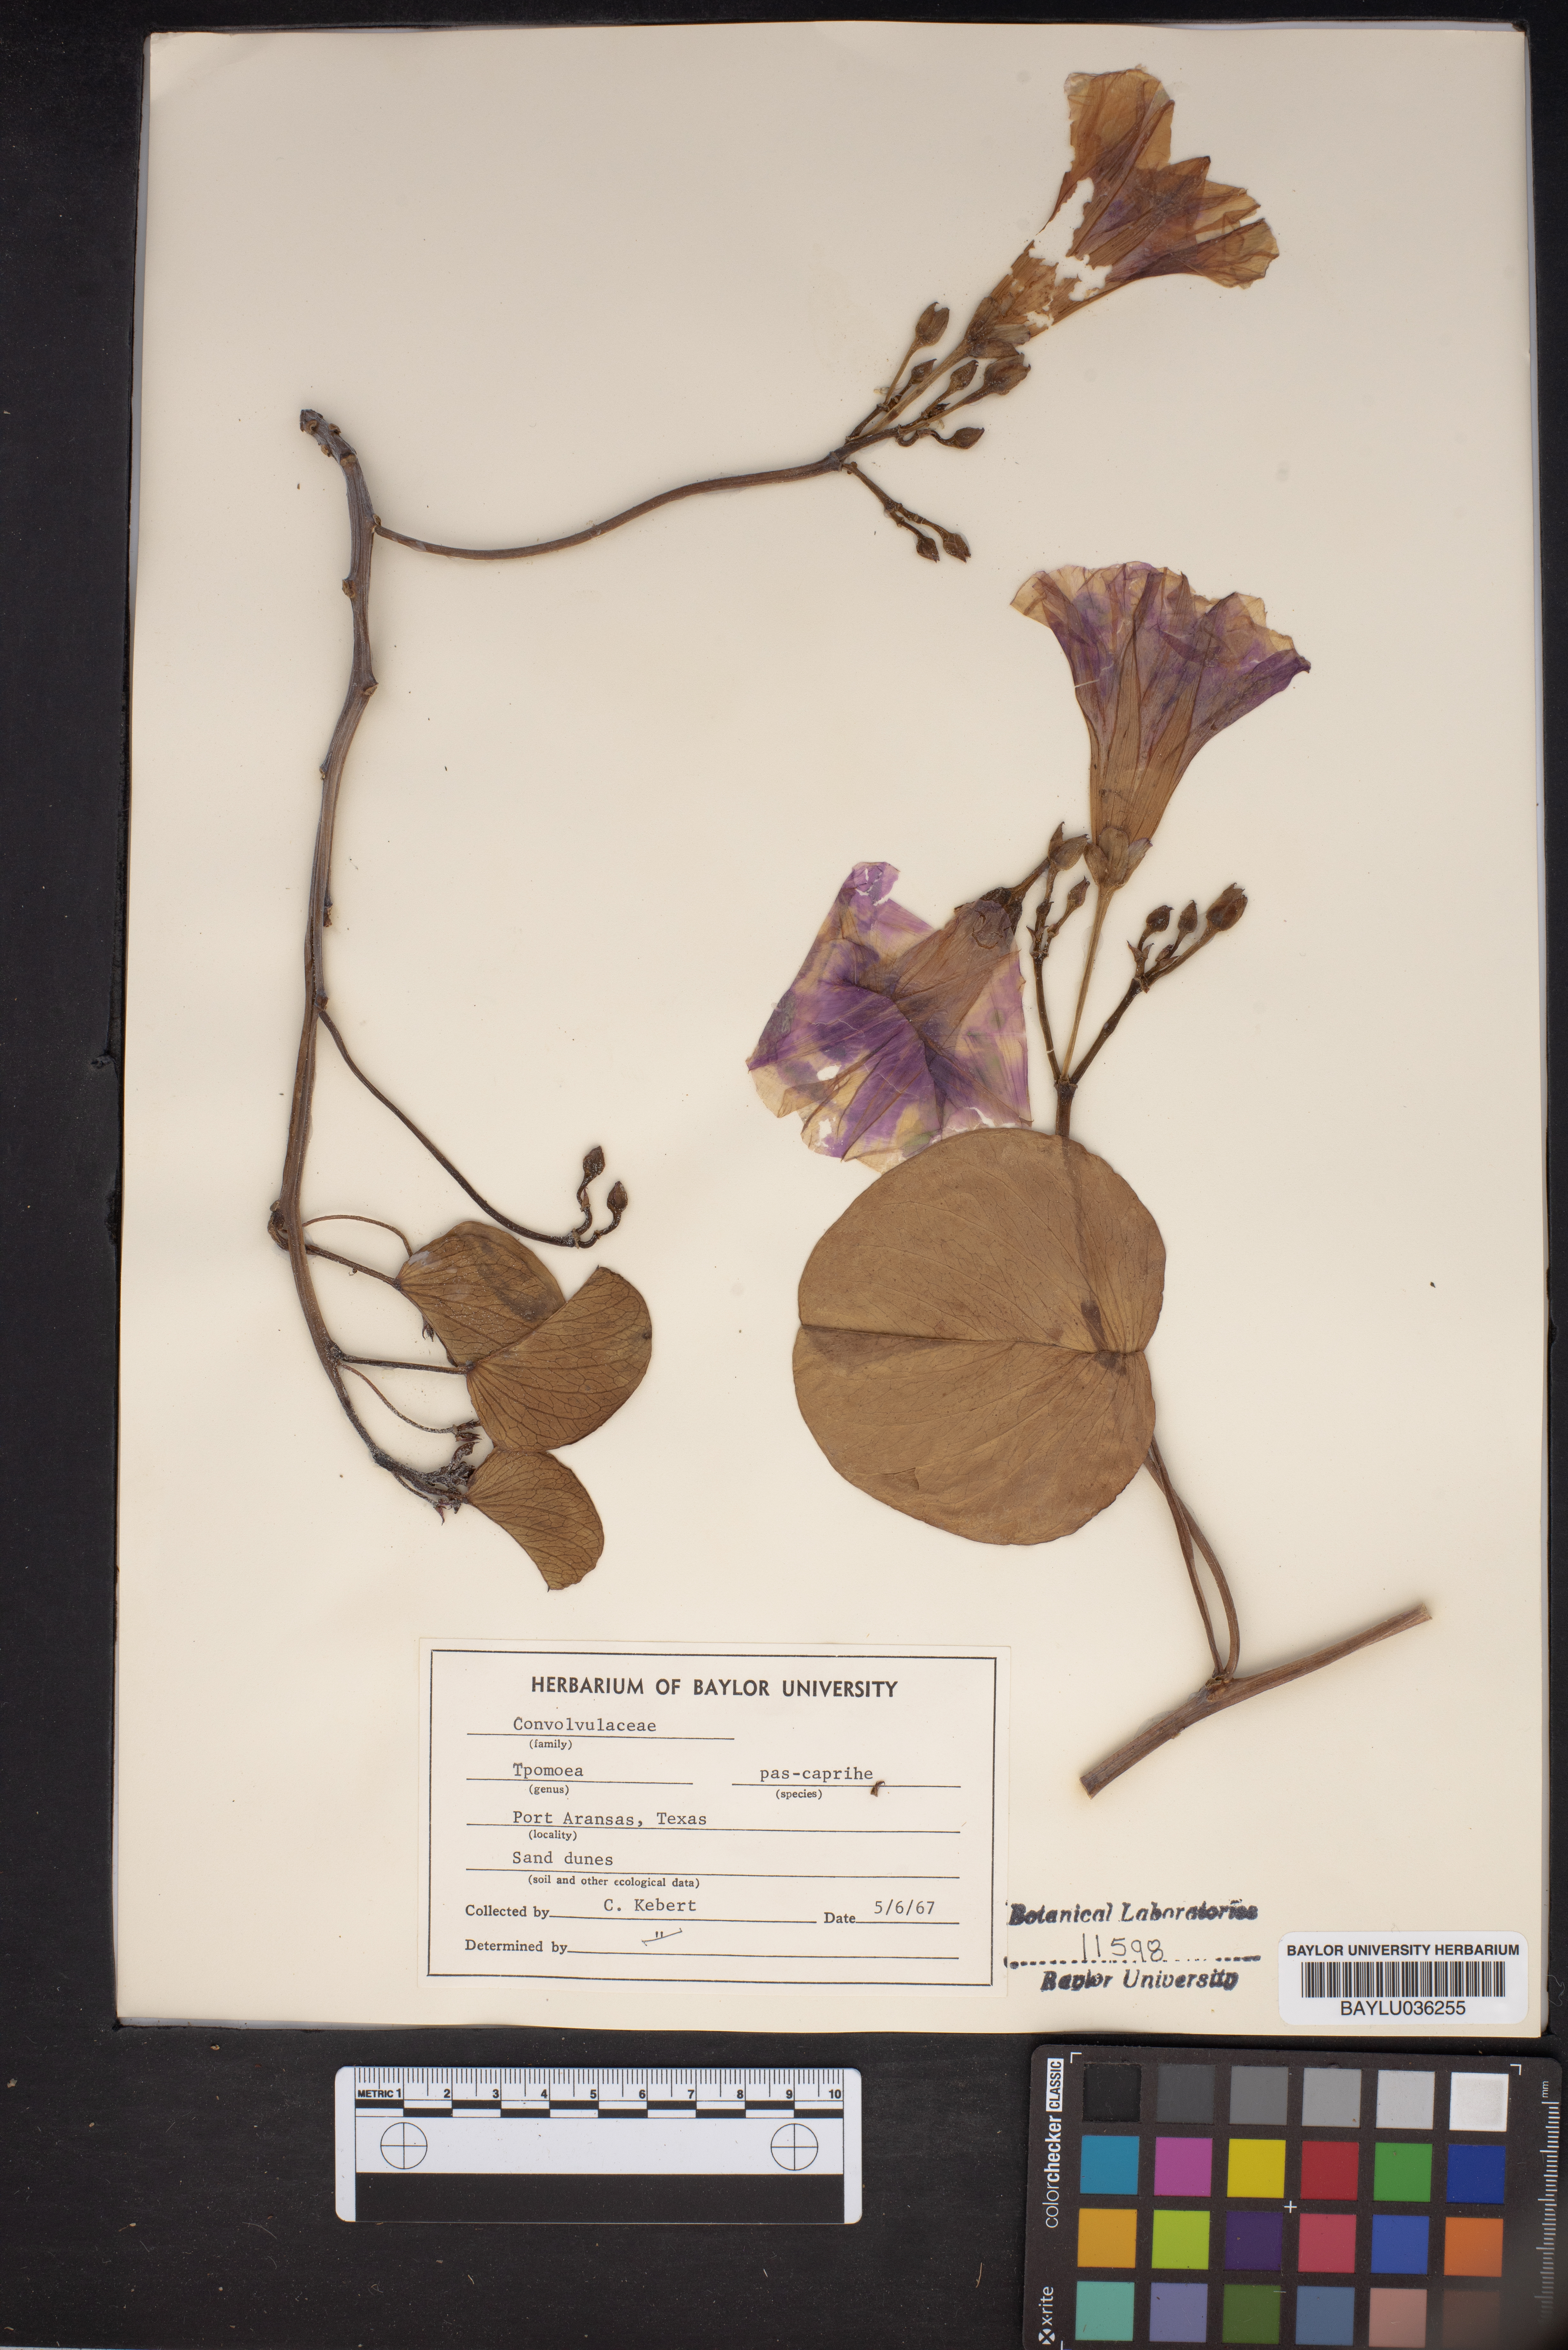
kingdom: Plantae
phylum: Tracheophyta
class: Magnoliopsida
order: Solanales
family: Convolvulaceae
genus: Ipomoea
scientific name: Ipomoea pes-caprae
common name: Beach morning glory
